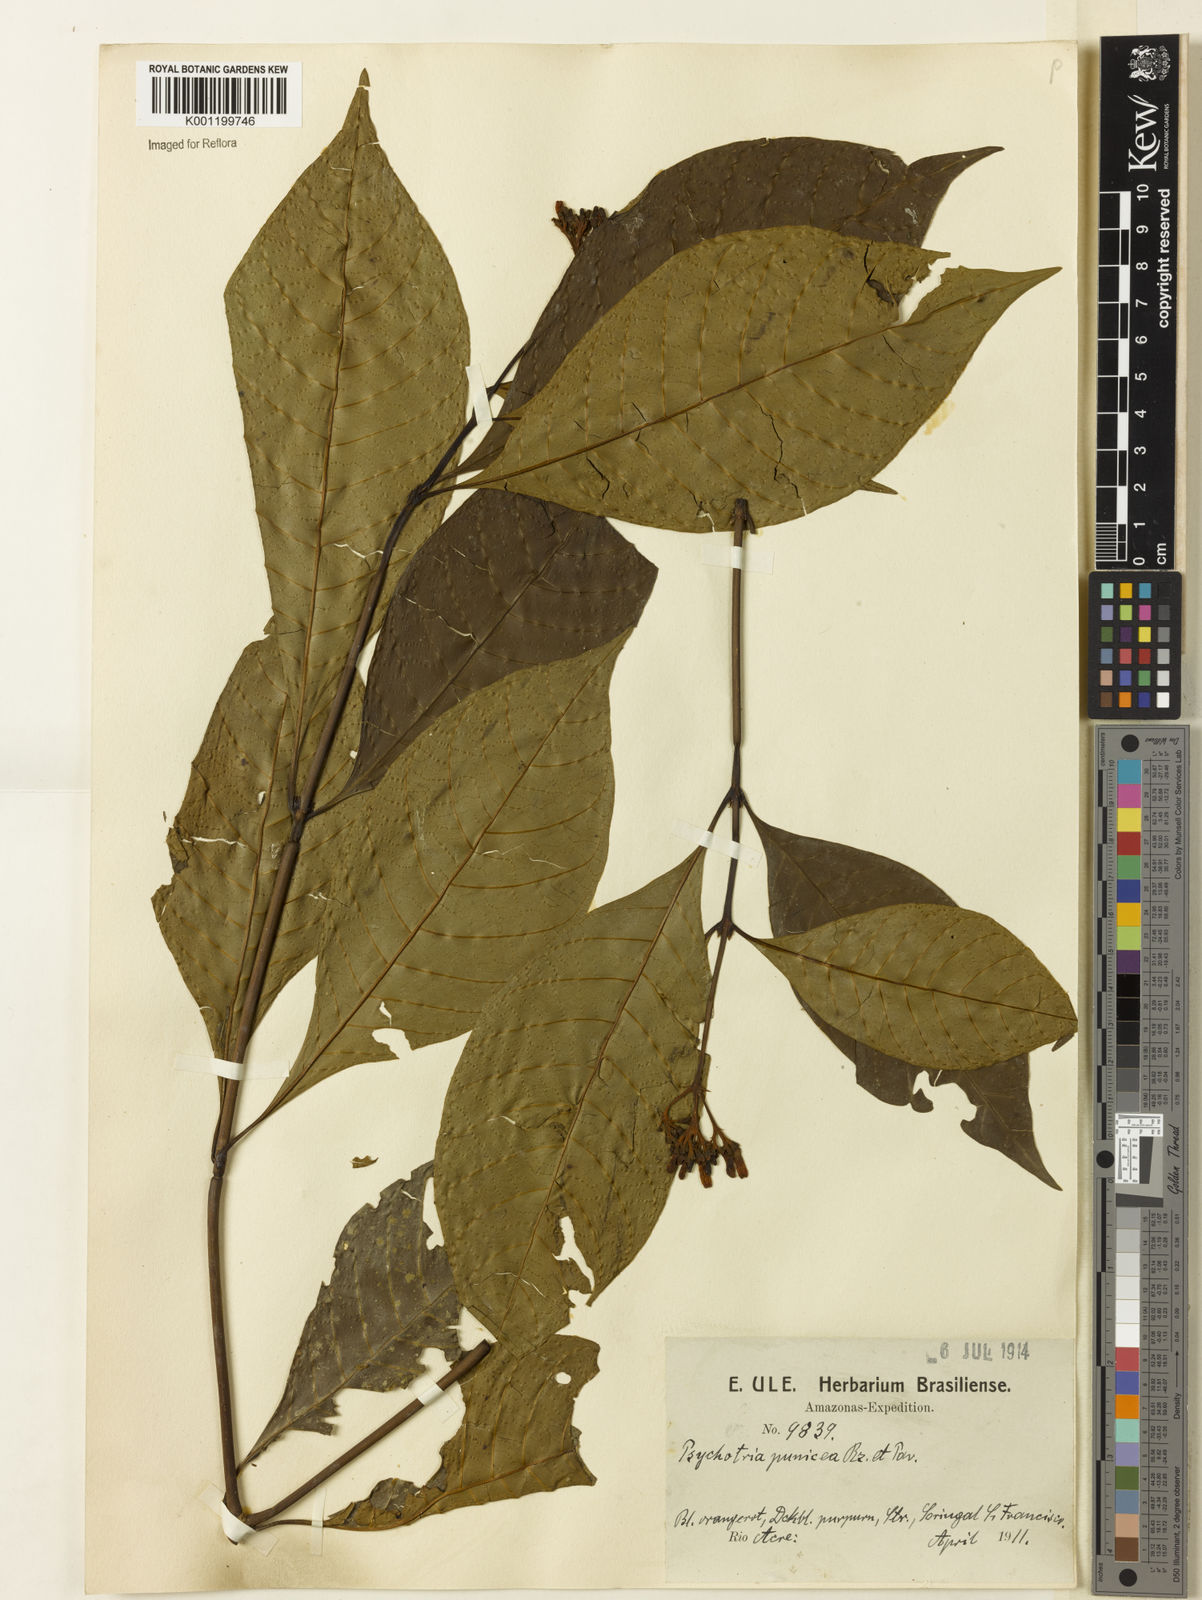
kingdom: Plantae
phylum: Tracheophyta
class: Magnoliopsida
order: Gentianales
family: Rubiaceae
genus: Palicourea
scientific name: Palicourea punicea
